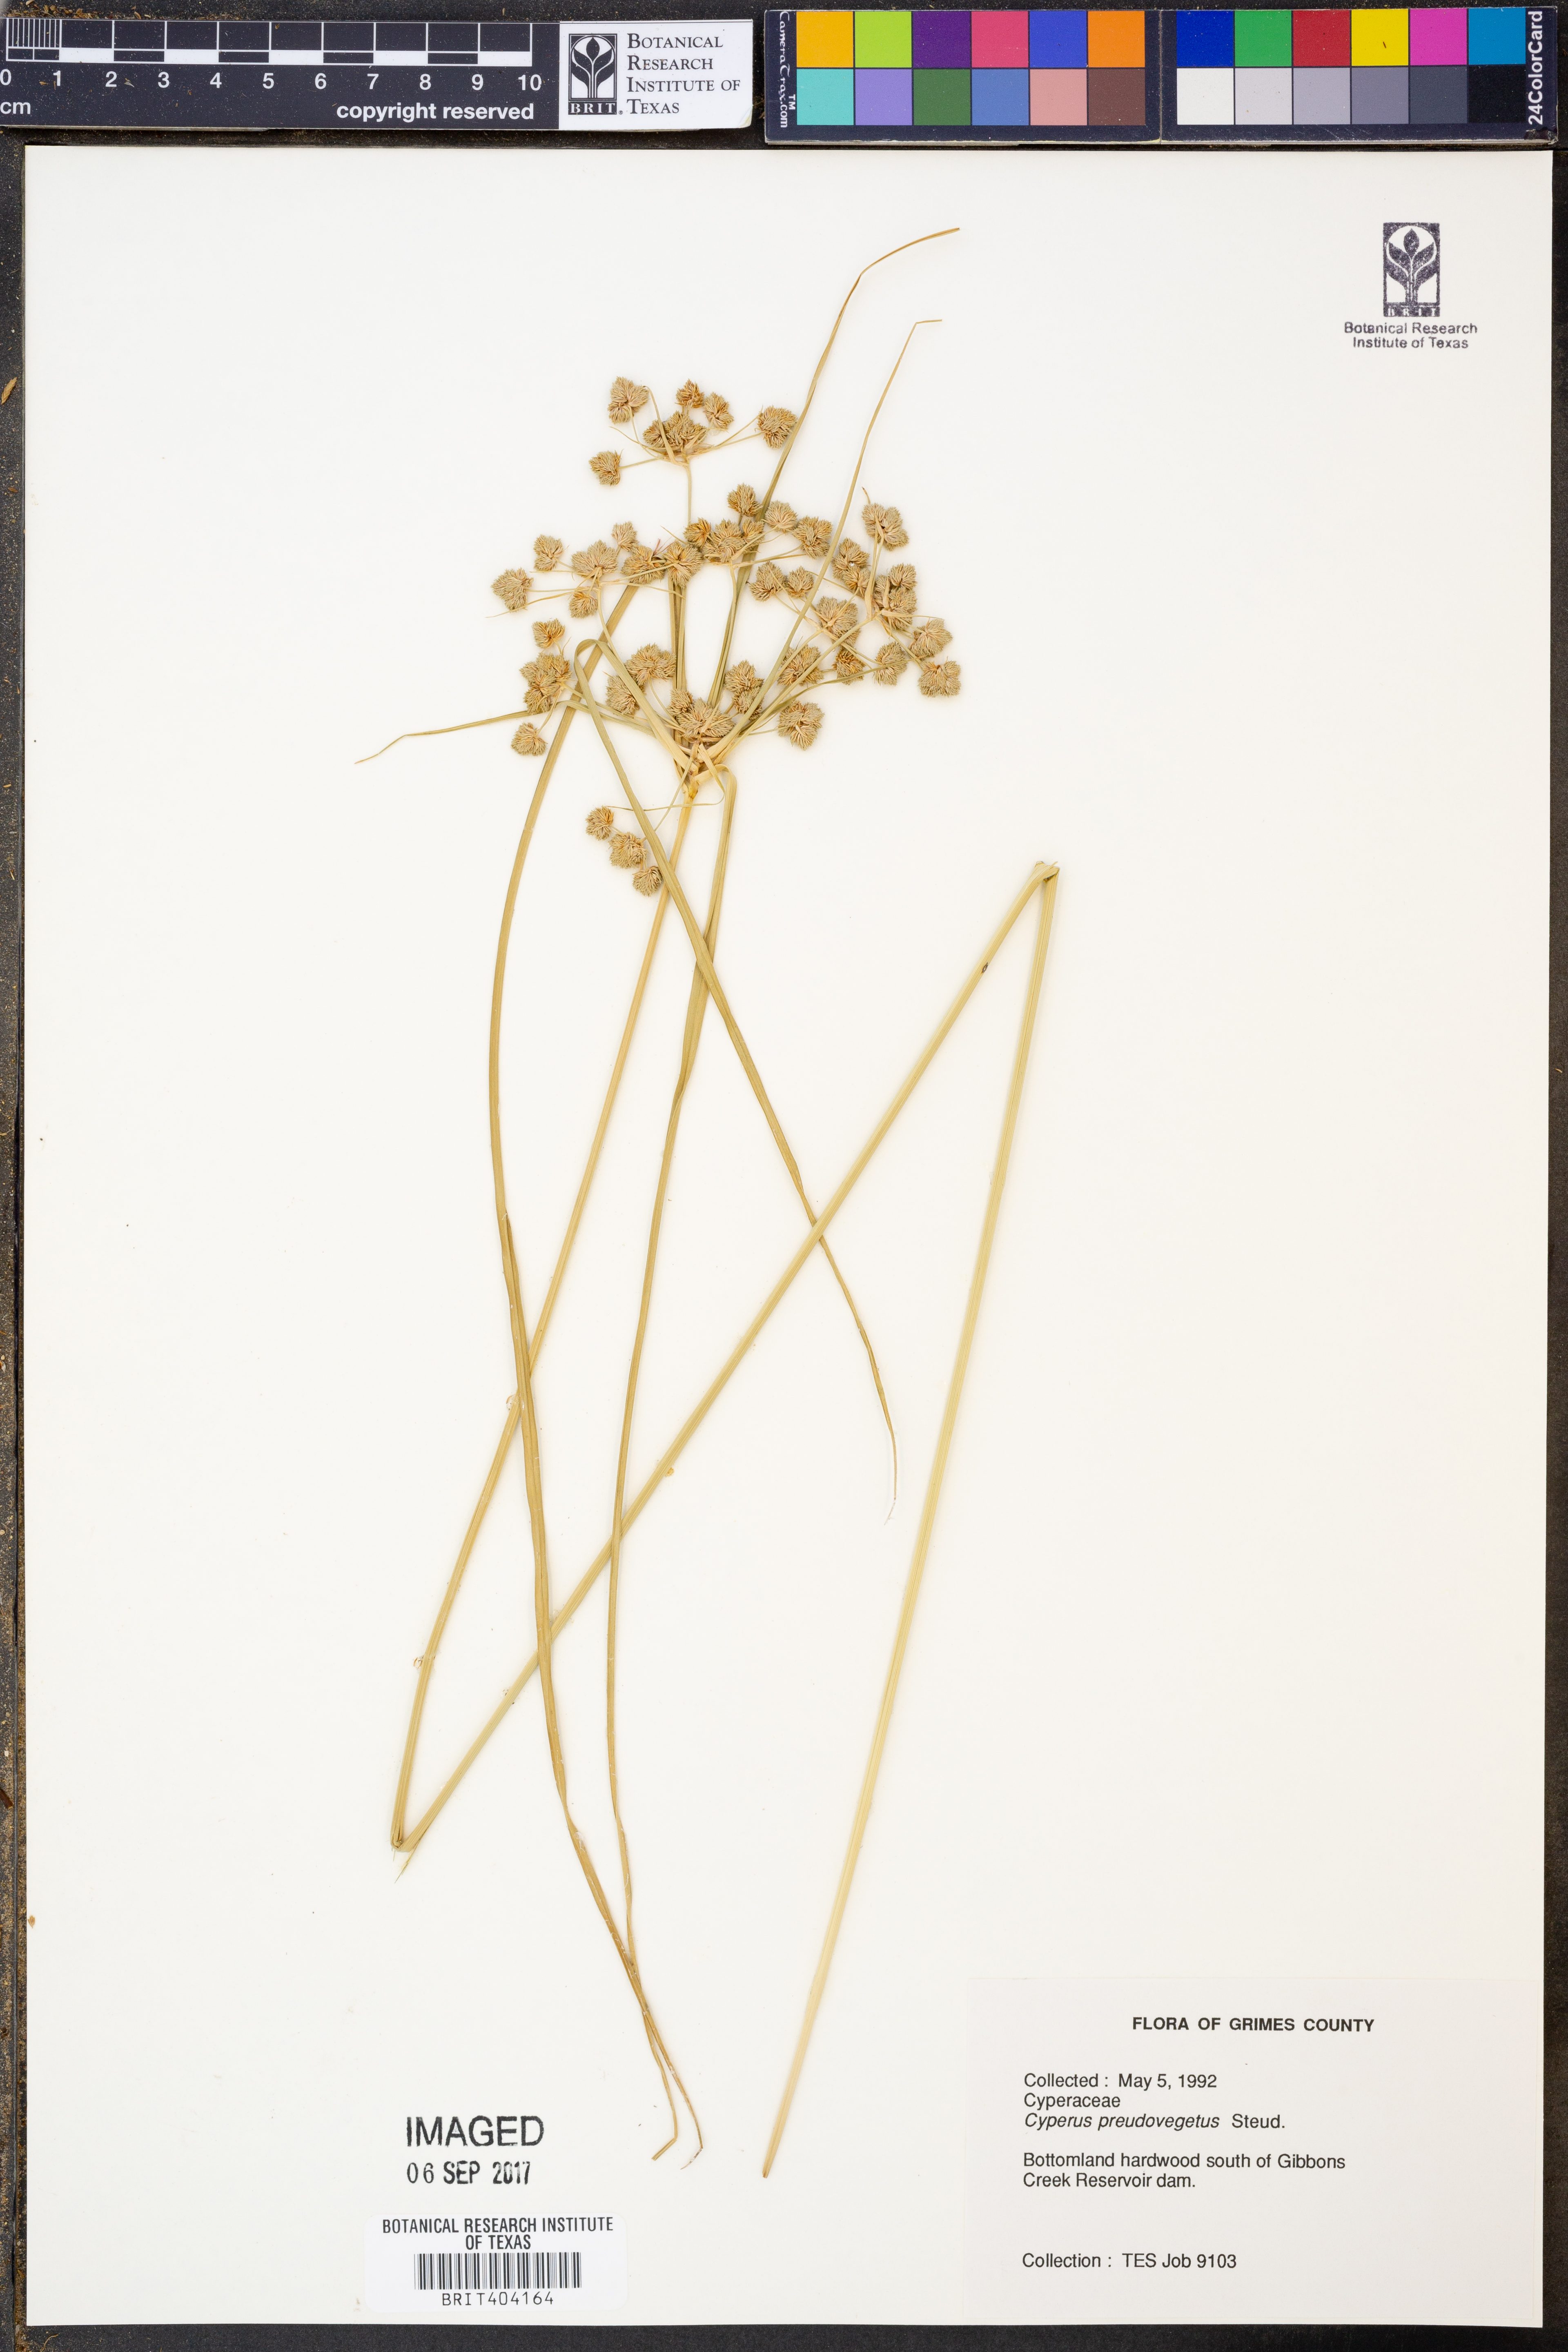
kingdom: Plantae
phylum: Tracheophyta
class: Liliopsida
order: Poales
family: Cyperaceae
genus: Cyperus
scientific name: Cyperus strigosus
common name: False nutsedge
